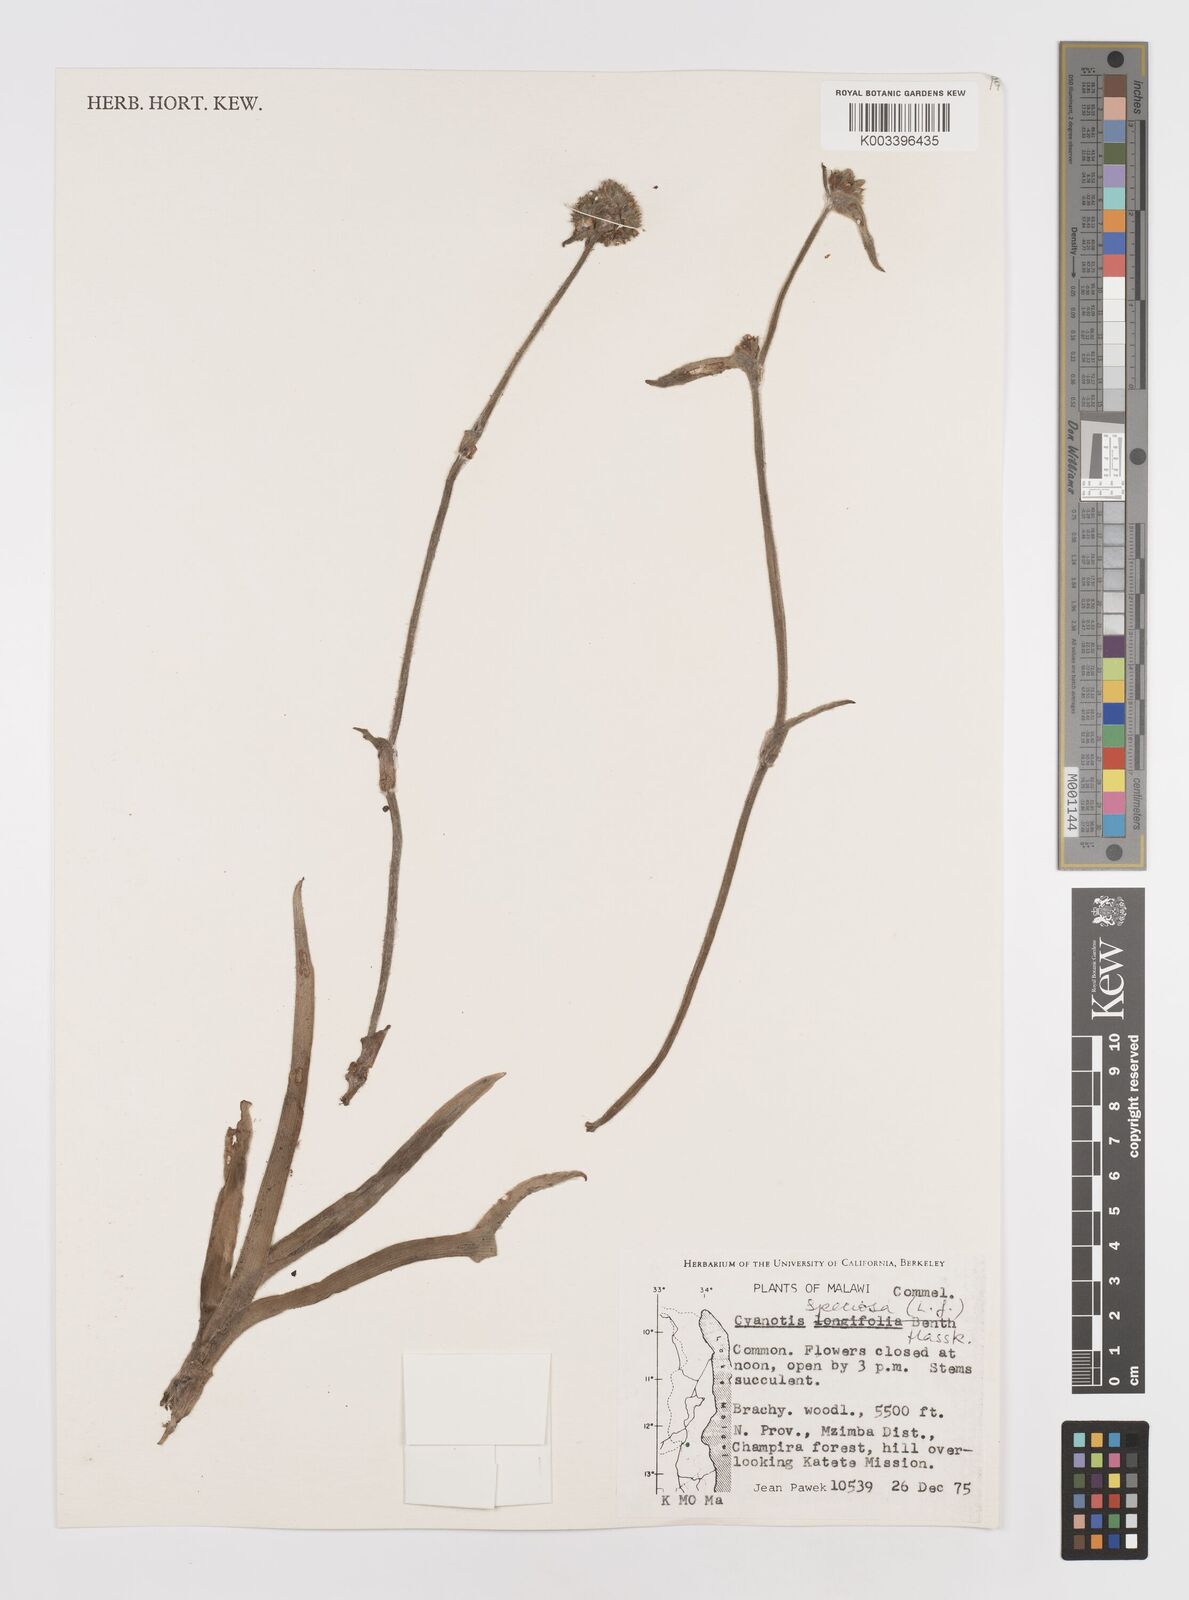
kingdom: Plantae
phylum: Tracheophyta
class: Liliopsida
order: Commelinales
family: Commelinaceae
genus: Cyanotis
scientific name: Cyanotis speciosa
